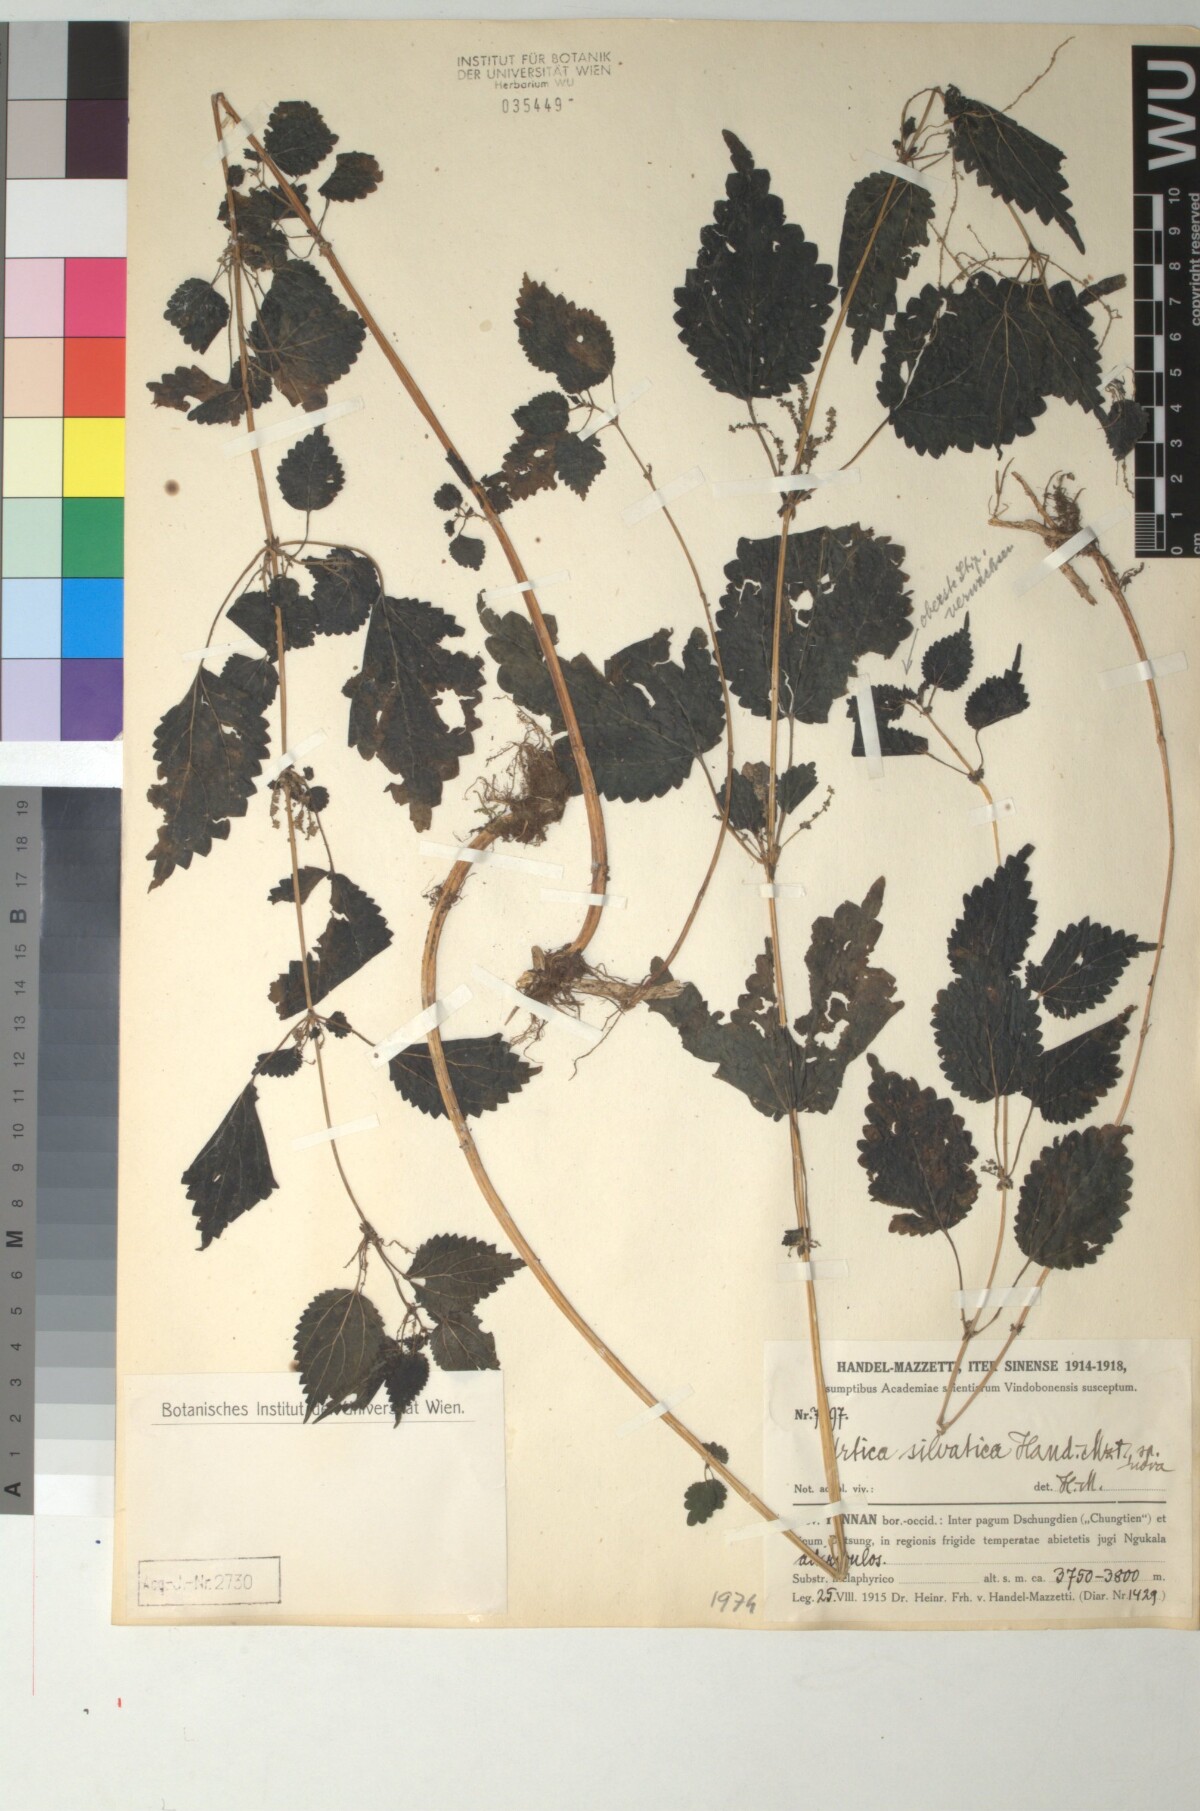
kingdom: Plantae
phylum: Tracheophyta
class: Magnoliopsida
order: Rosales
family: Urticaceae
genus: Urtica
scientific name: Urtica thunbergiana
